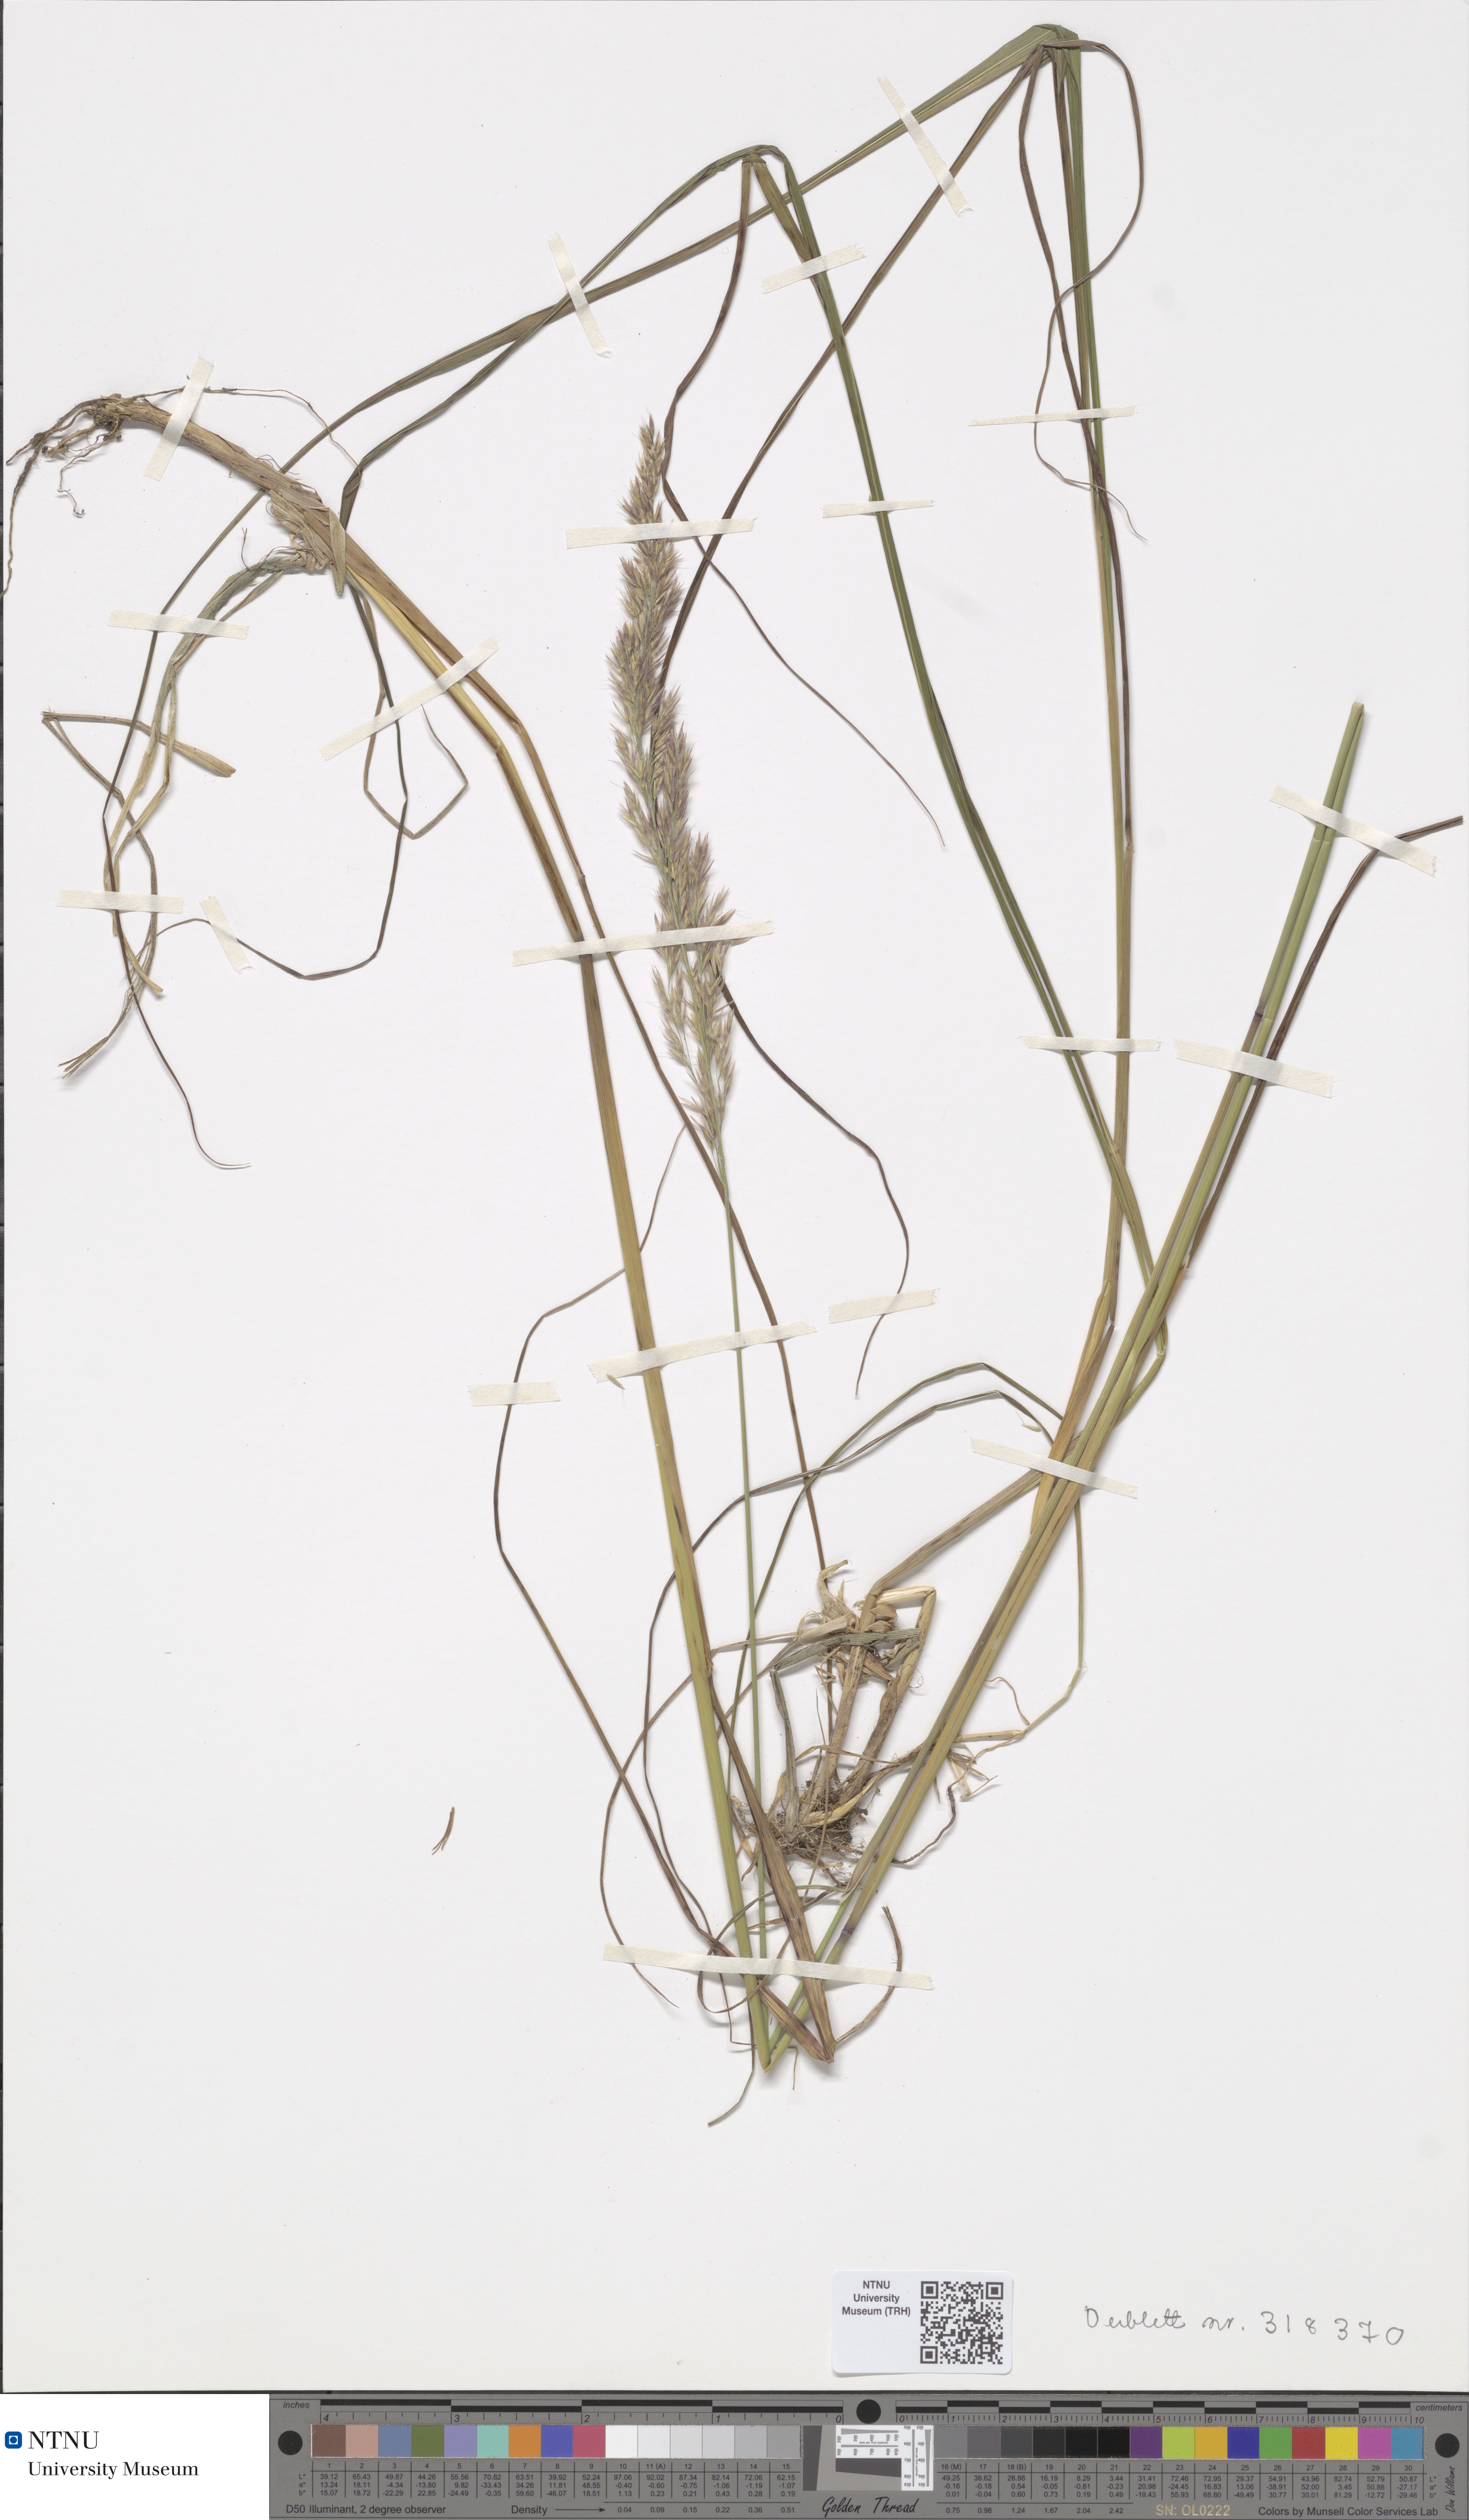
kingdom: Plantae
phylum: Tracheophyta
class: Liliopsida
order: Poales
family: Poaceae
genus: Calamagrostis
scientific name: Calamagrostis arundinacea
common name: Metskastik
